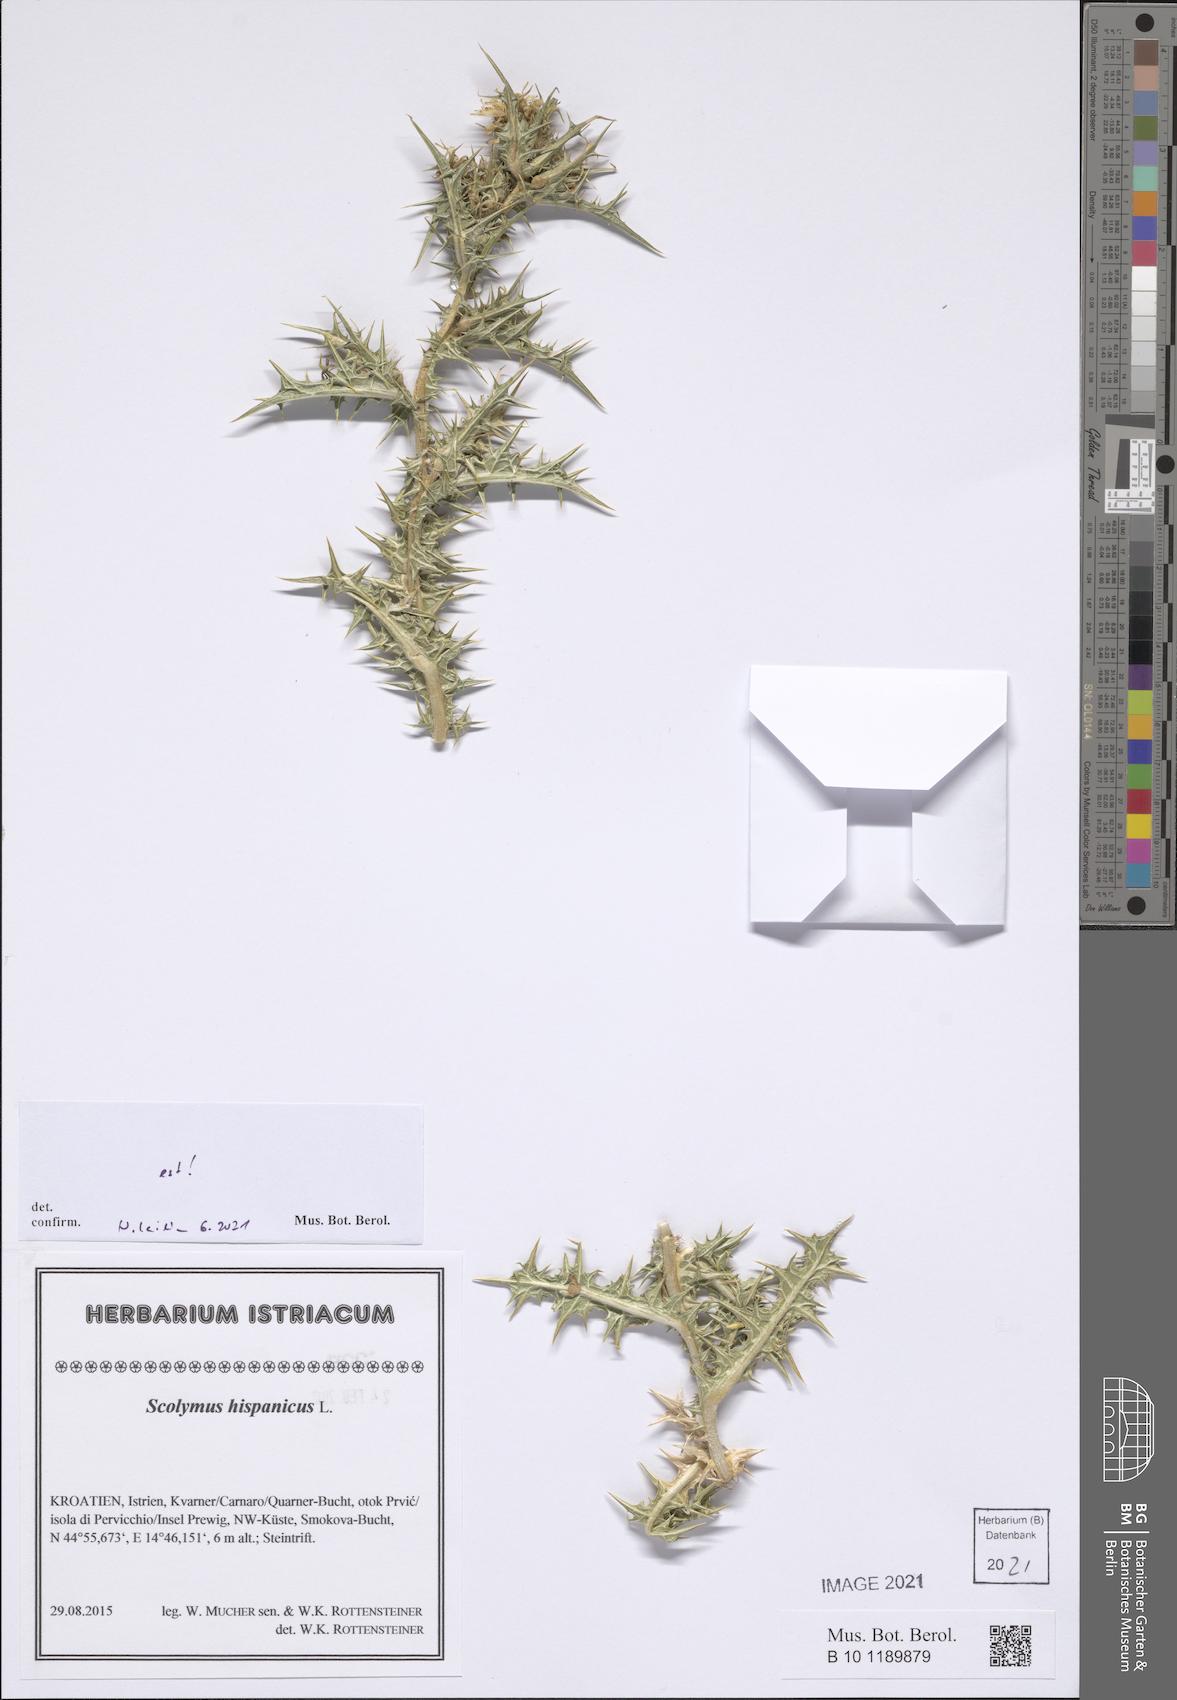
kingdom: Plantae
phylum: Tracheophyta
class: Magnoliopsida
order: Asterales
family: Asteraceae
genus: Scolymus
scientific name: Scolymus hispanicus
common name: Golden thistle
